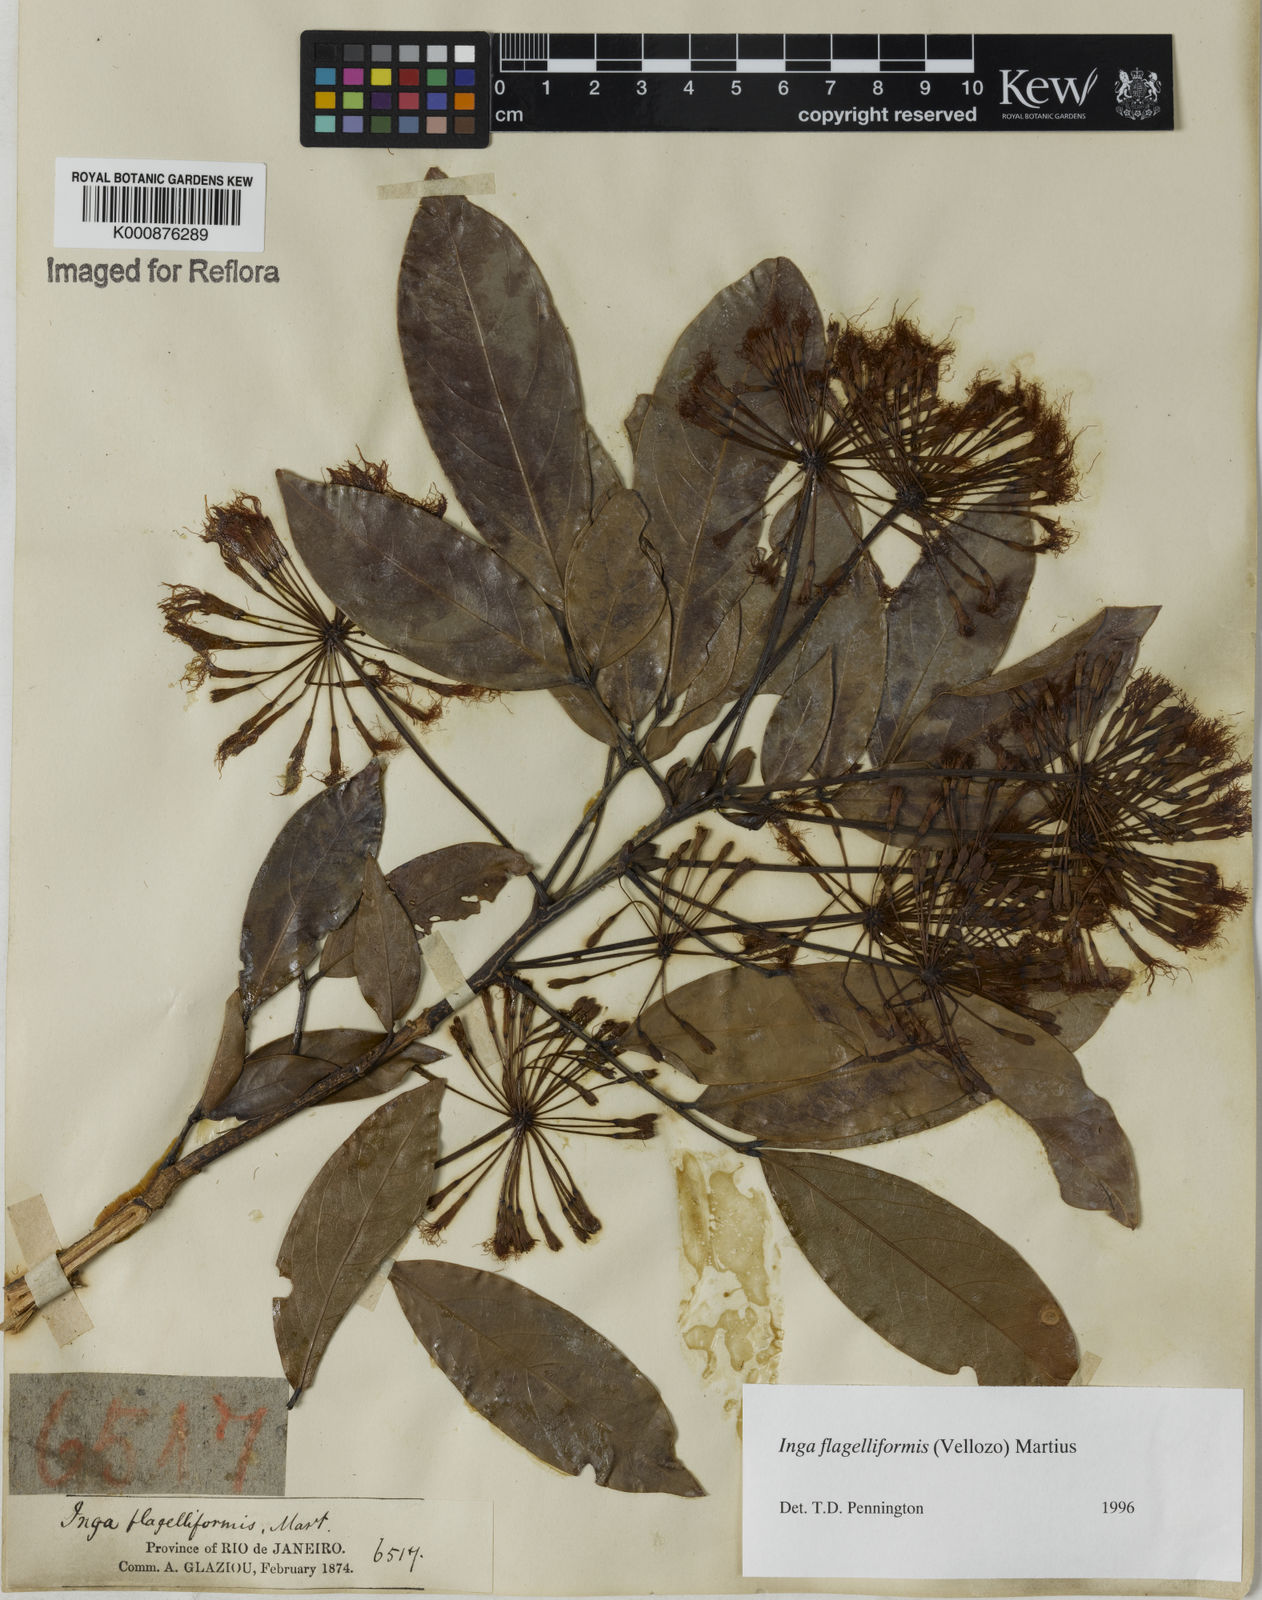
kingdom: Plantae
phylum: Tracheophyta
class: Magnoliopsida
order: Fabales
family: Fabaceae
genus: Inga
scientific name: Inga flagelliformis
